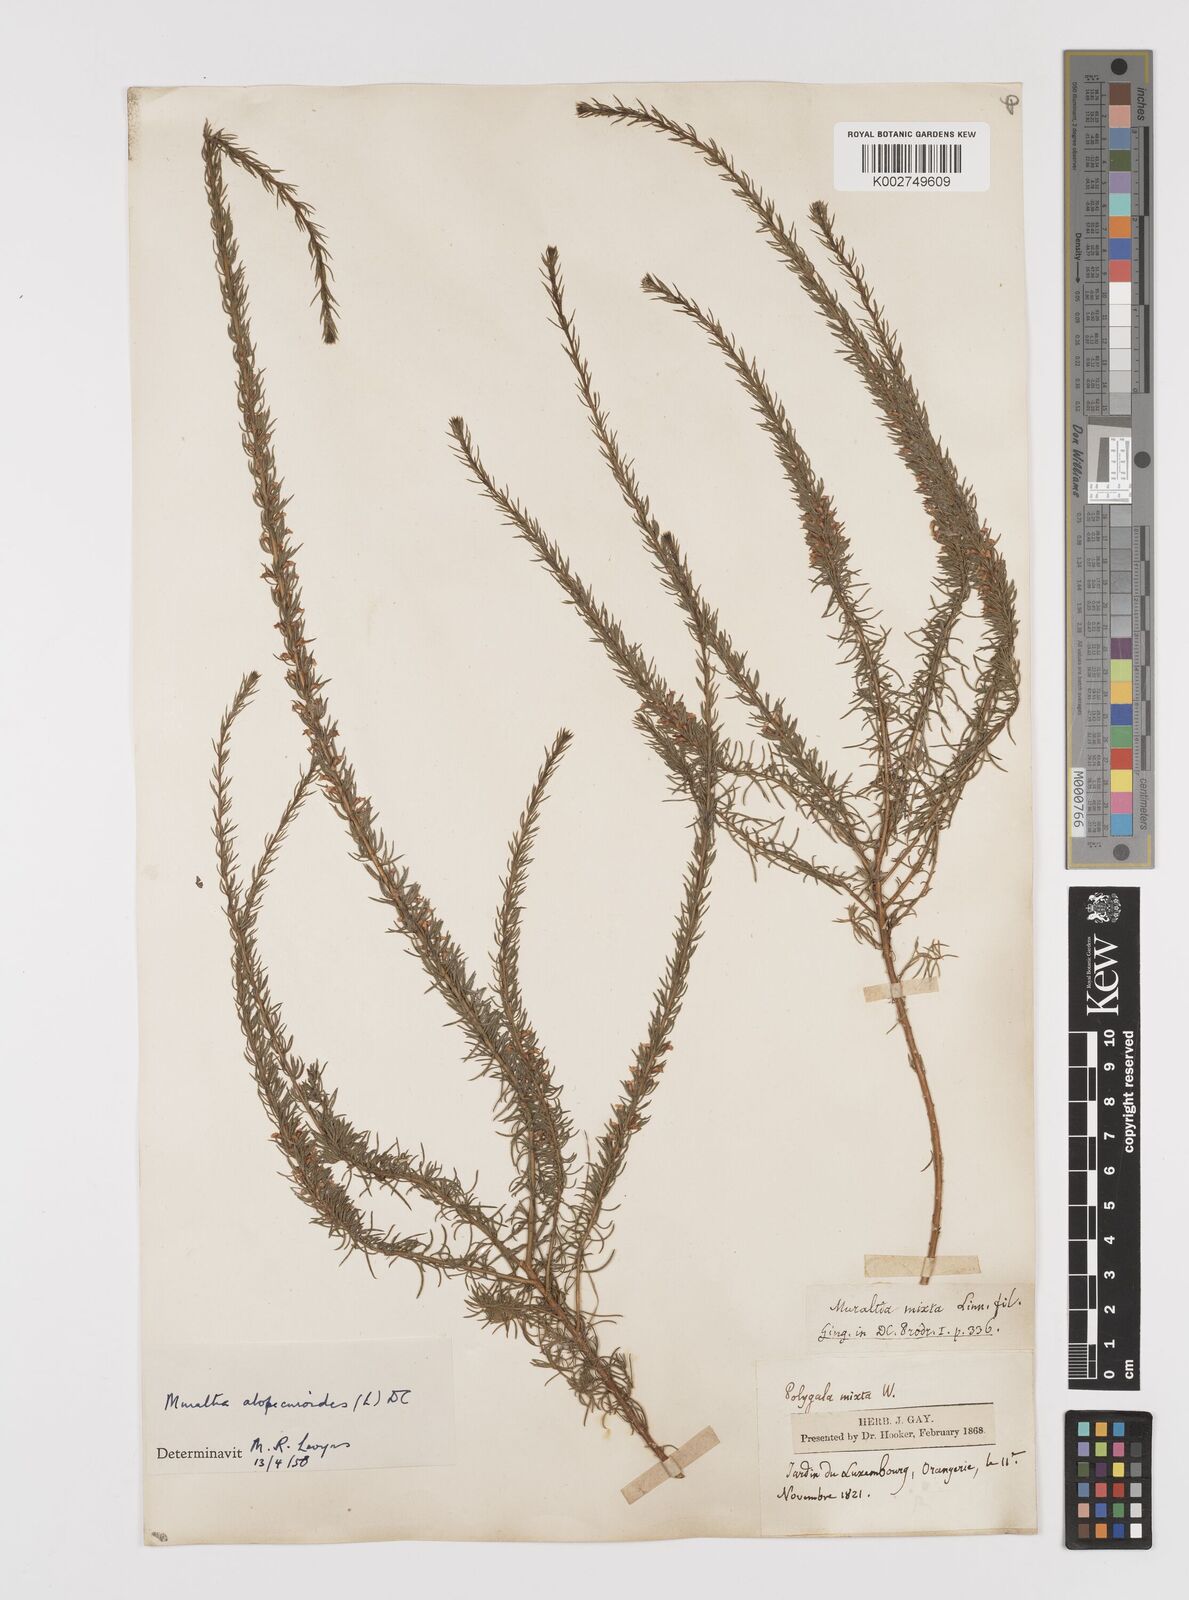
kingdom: Plantae
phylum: Tracheophyta
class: Magnoliopsida
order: Fabales
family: Polygalaceae
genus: Muraltia
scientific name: Muraltia alopecuroides
